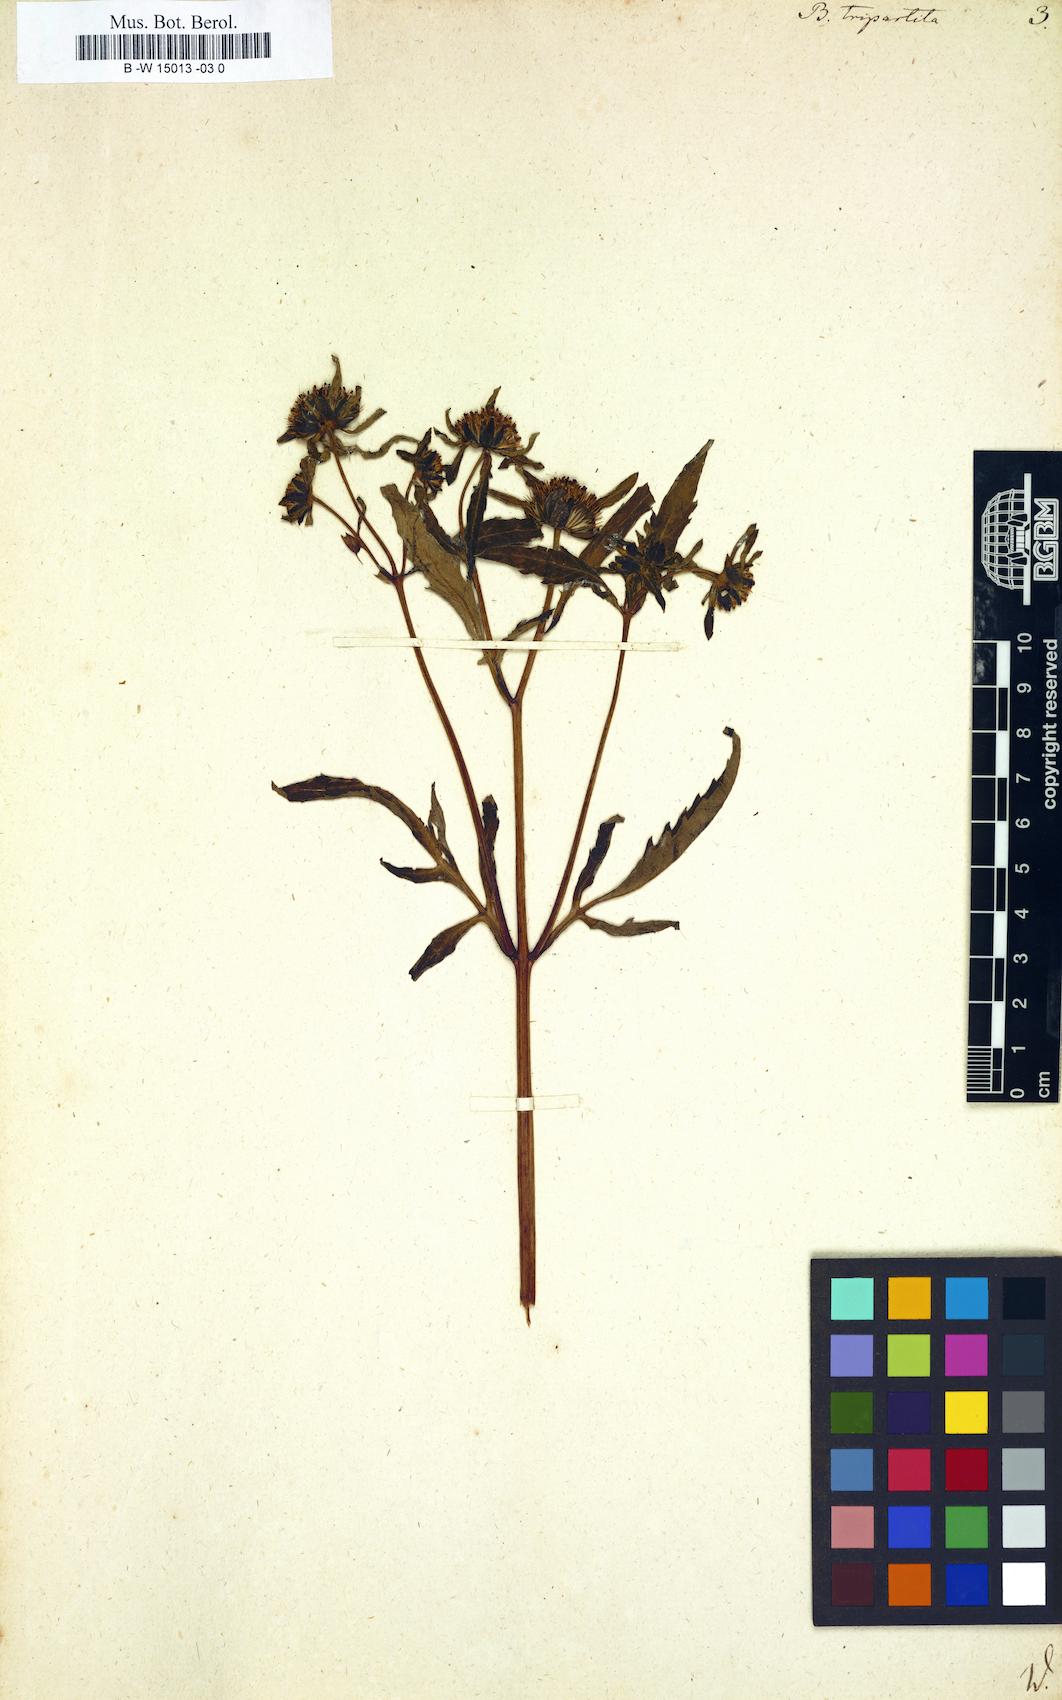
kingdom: Plantae
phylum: Tracheophyta
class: Magnoliopsida
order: Asterales
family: Asteraceae
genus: Bidens
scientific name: Bidens tripartita
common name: Trifid bur-marigold
